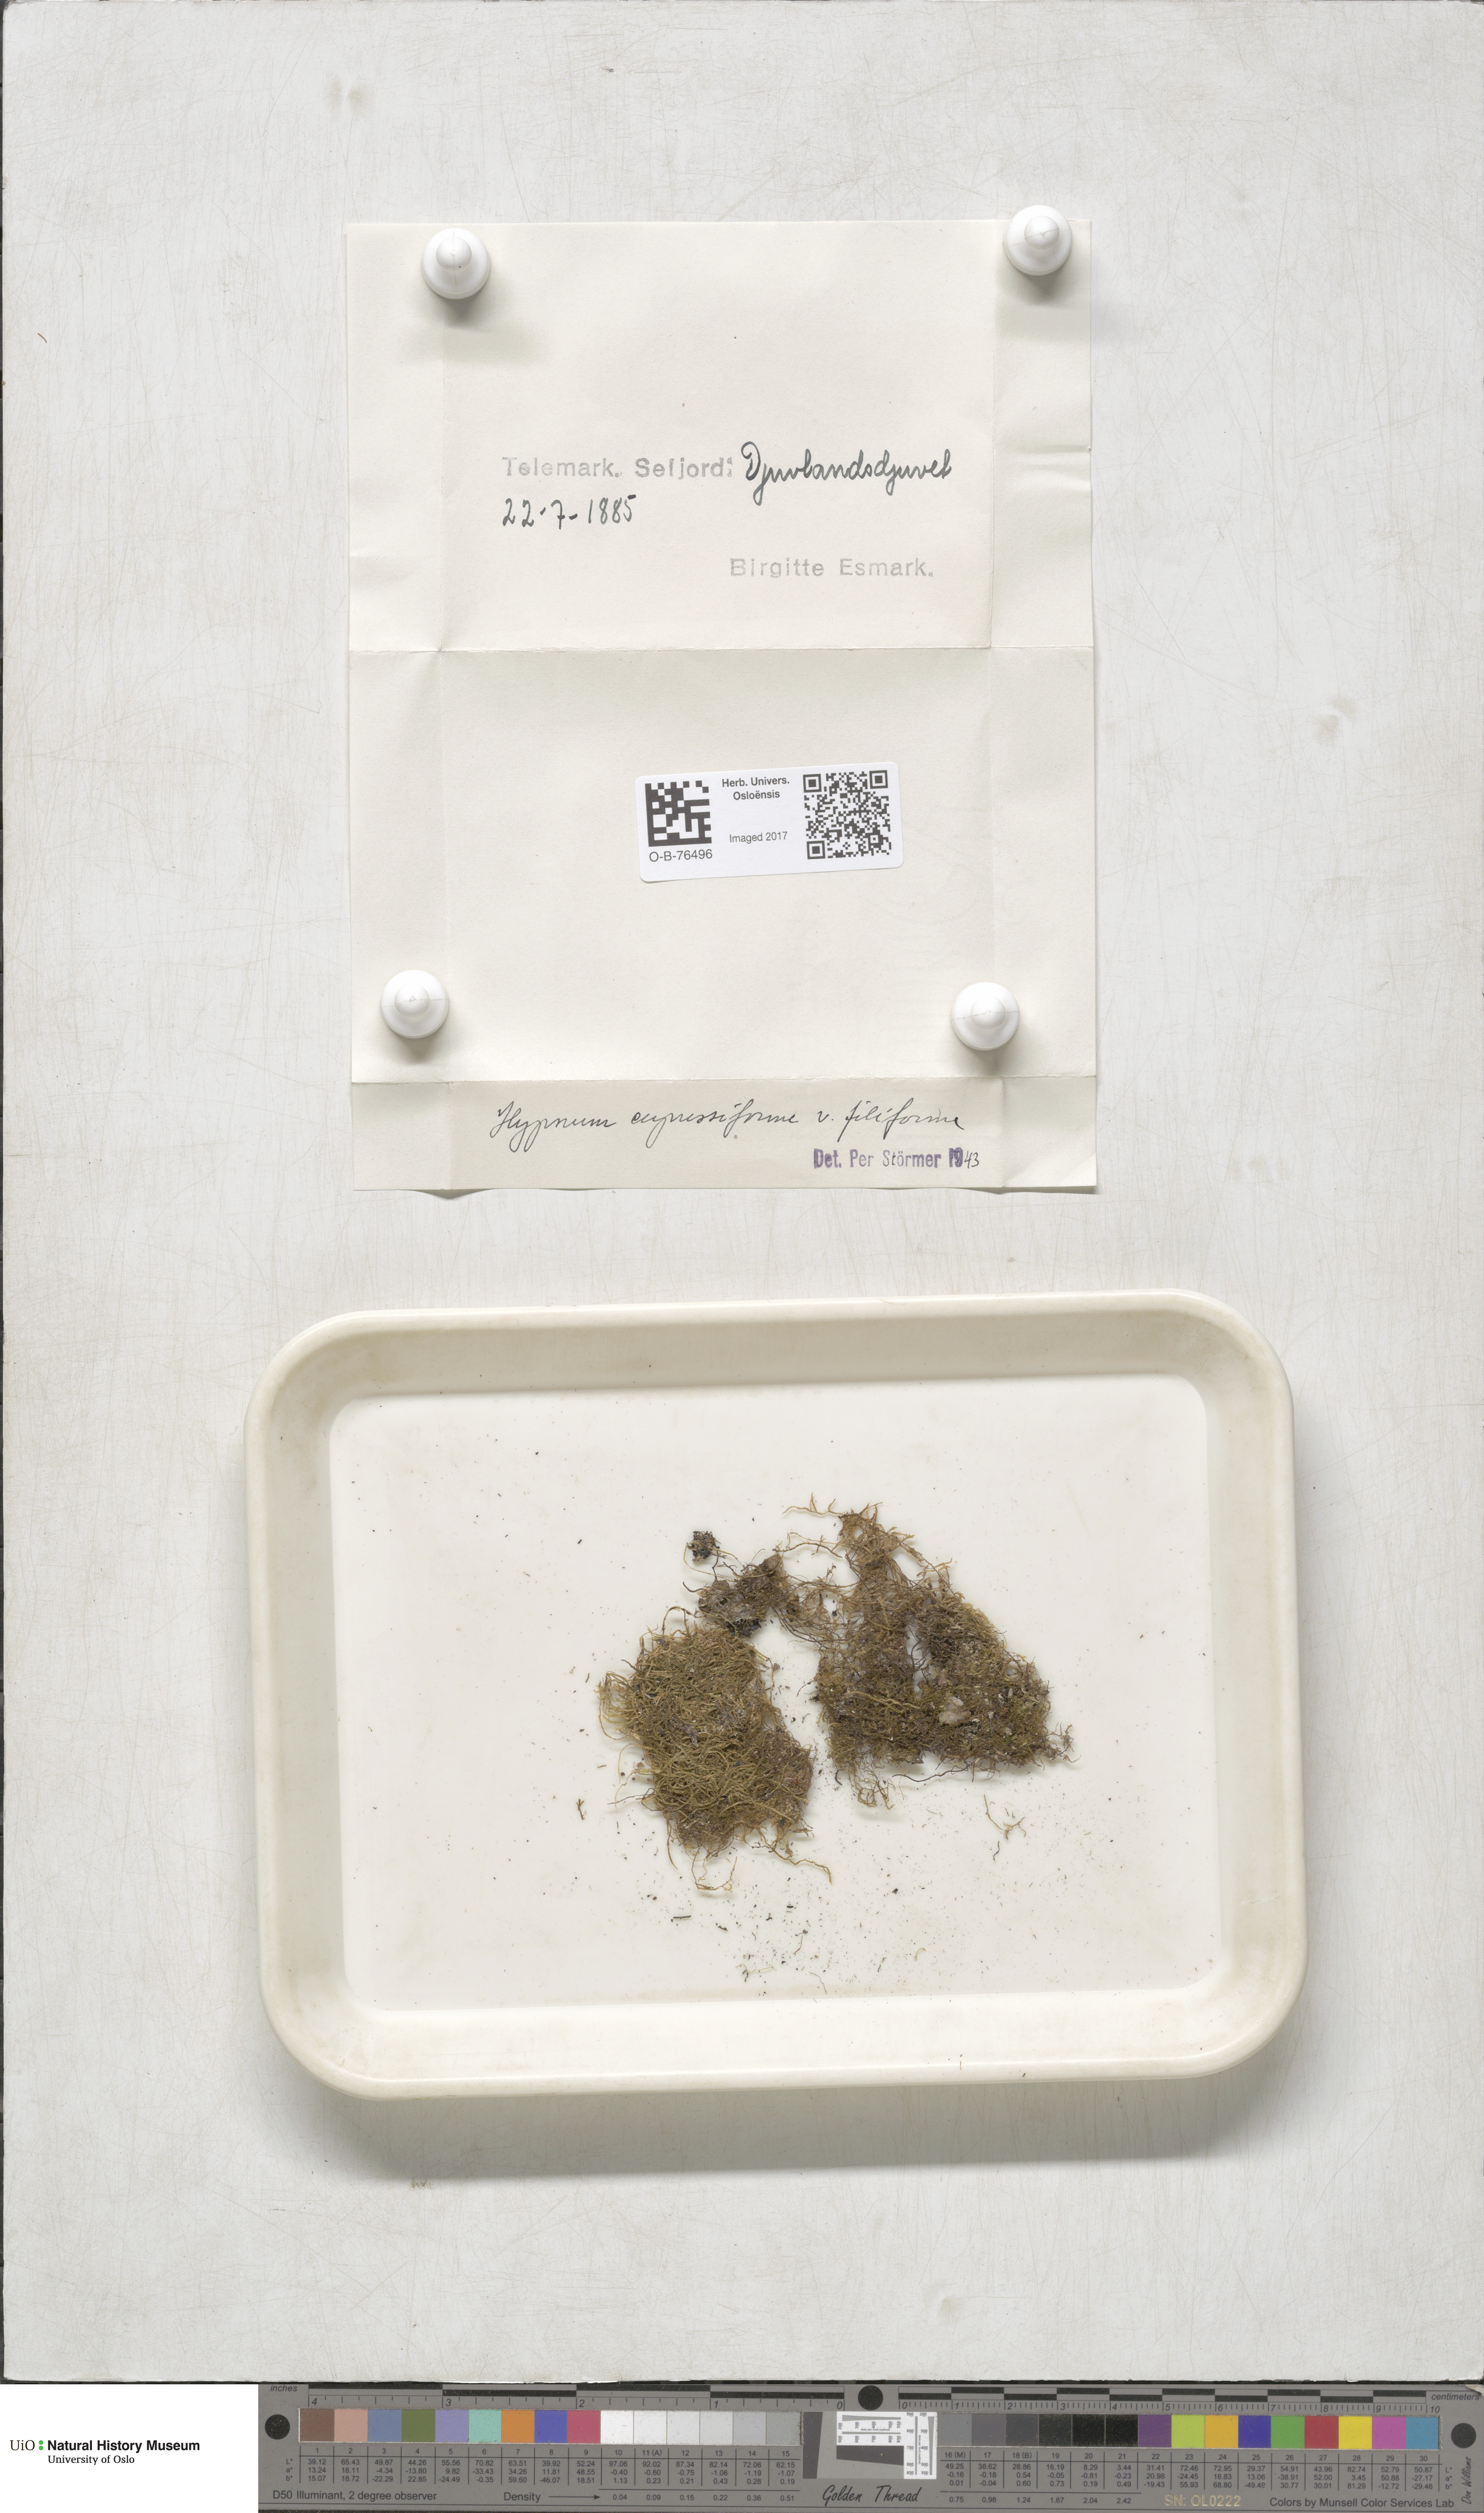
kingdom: Plantae
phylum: Bryophyta
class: Bryopsida
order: Hypnales
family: Hypnaceae
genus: Hypnum
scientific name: Hypnum cupressiforme
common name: Cypress-leaved plait-moss
